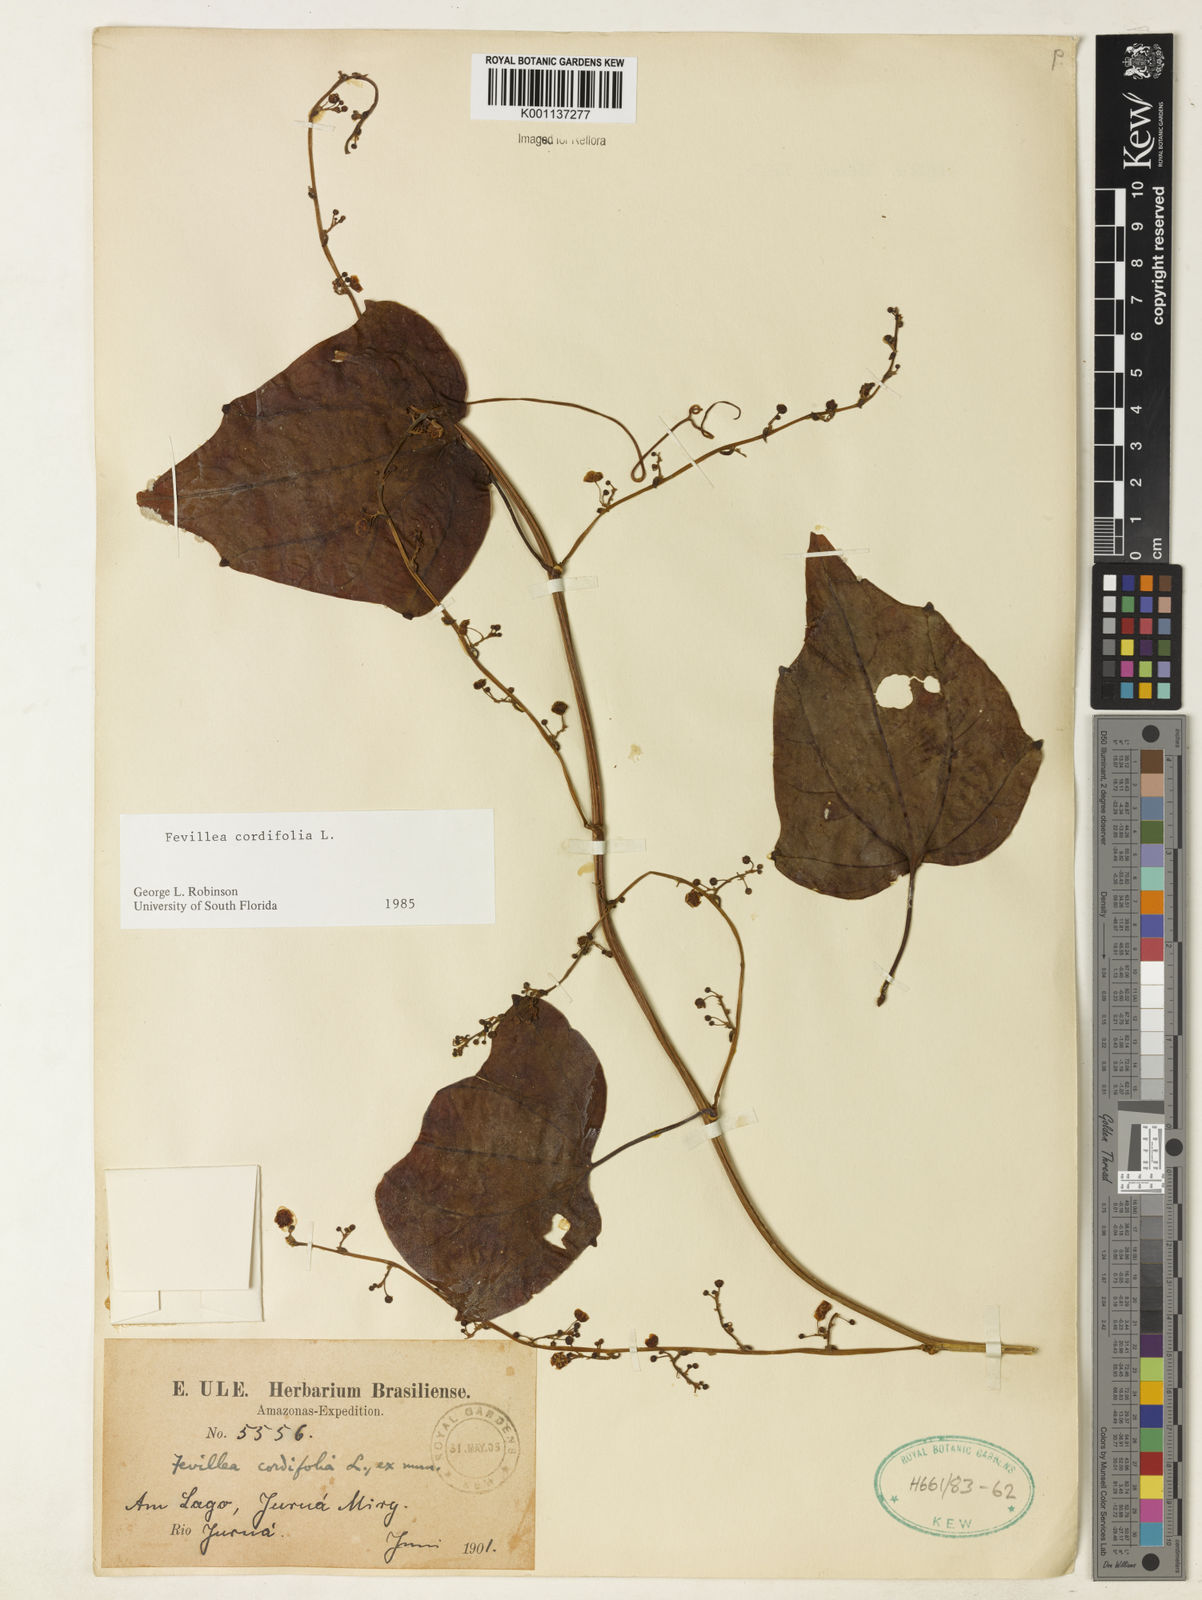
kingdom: Plantae
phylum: Tracheophyta
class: Magnoliopsida
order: Cucurbitales
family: Cucurbitaceae
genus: Fevillea
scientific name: Fevillea cordifolia
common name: Antidote-vine
